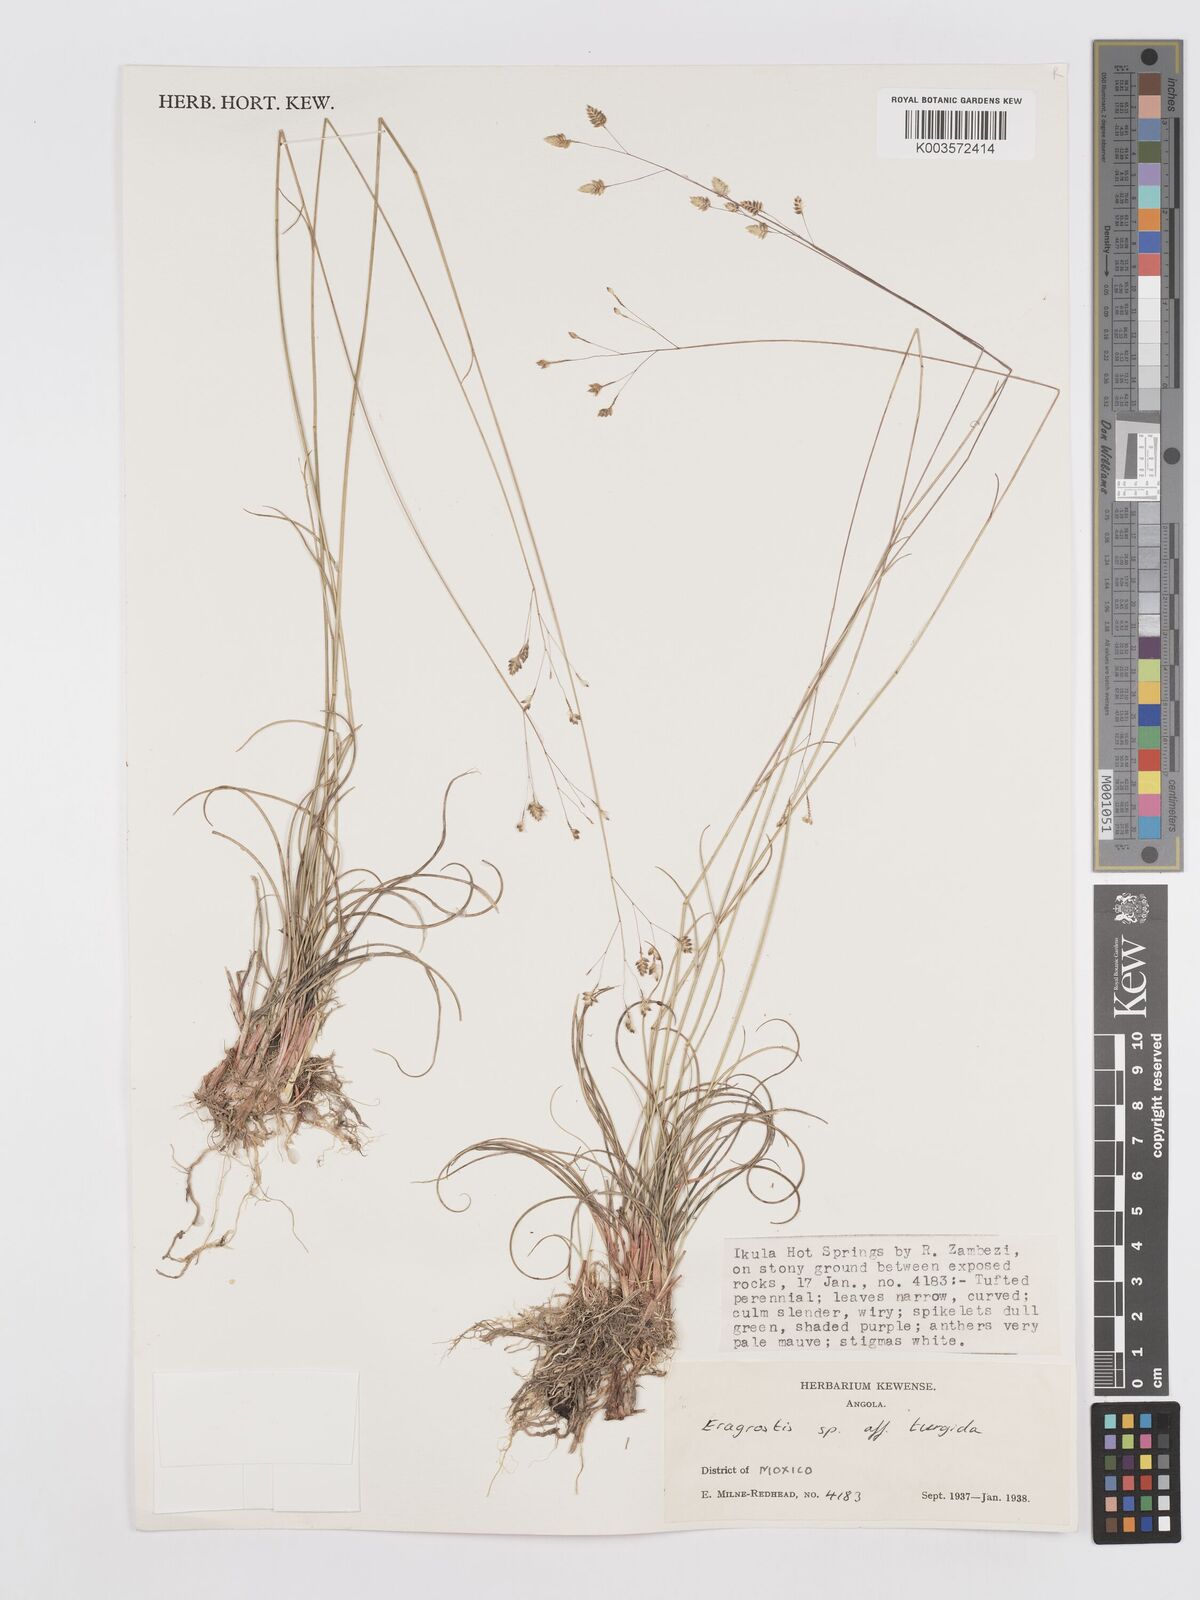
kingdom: Plantae
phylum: Tracheophyta
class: Liliopsida
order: Poales
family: Poaceae
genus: Eragrostis
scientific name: Eragrostis
